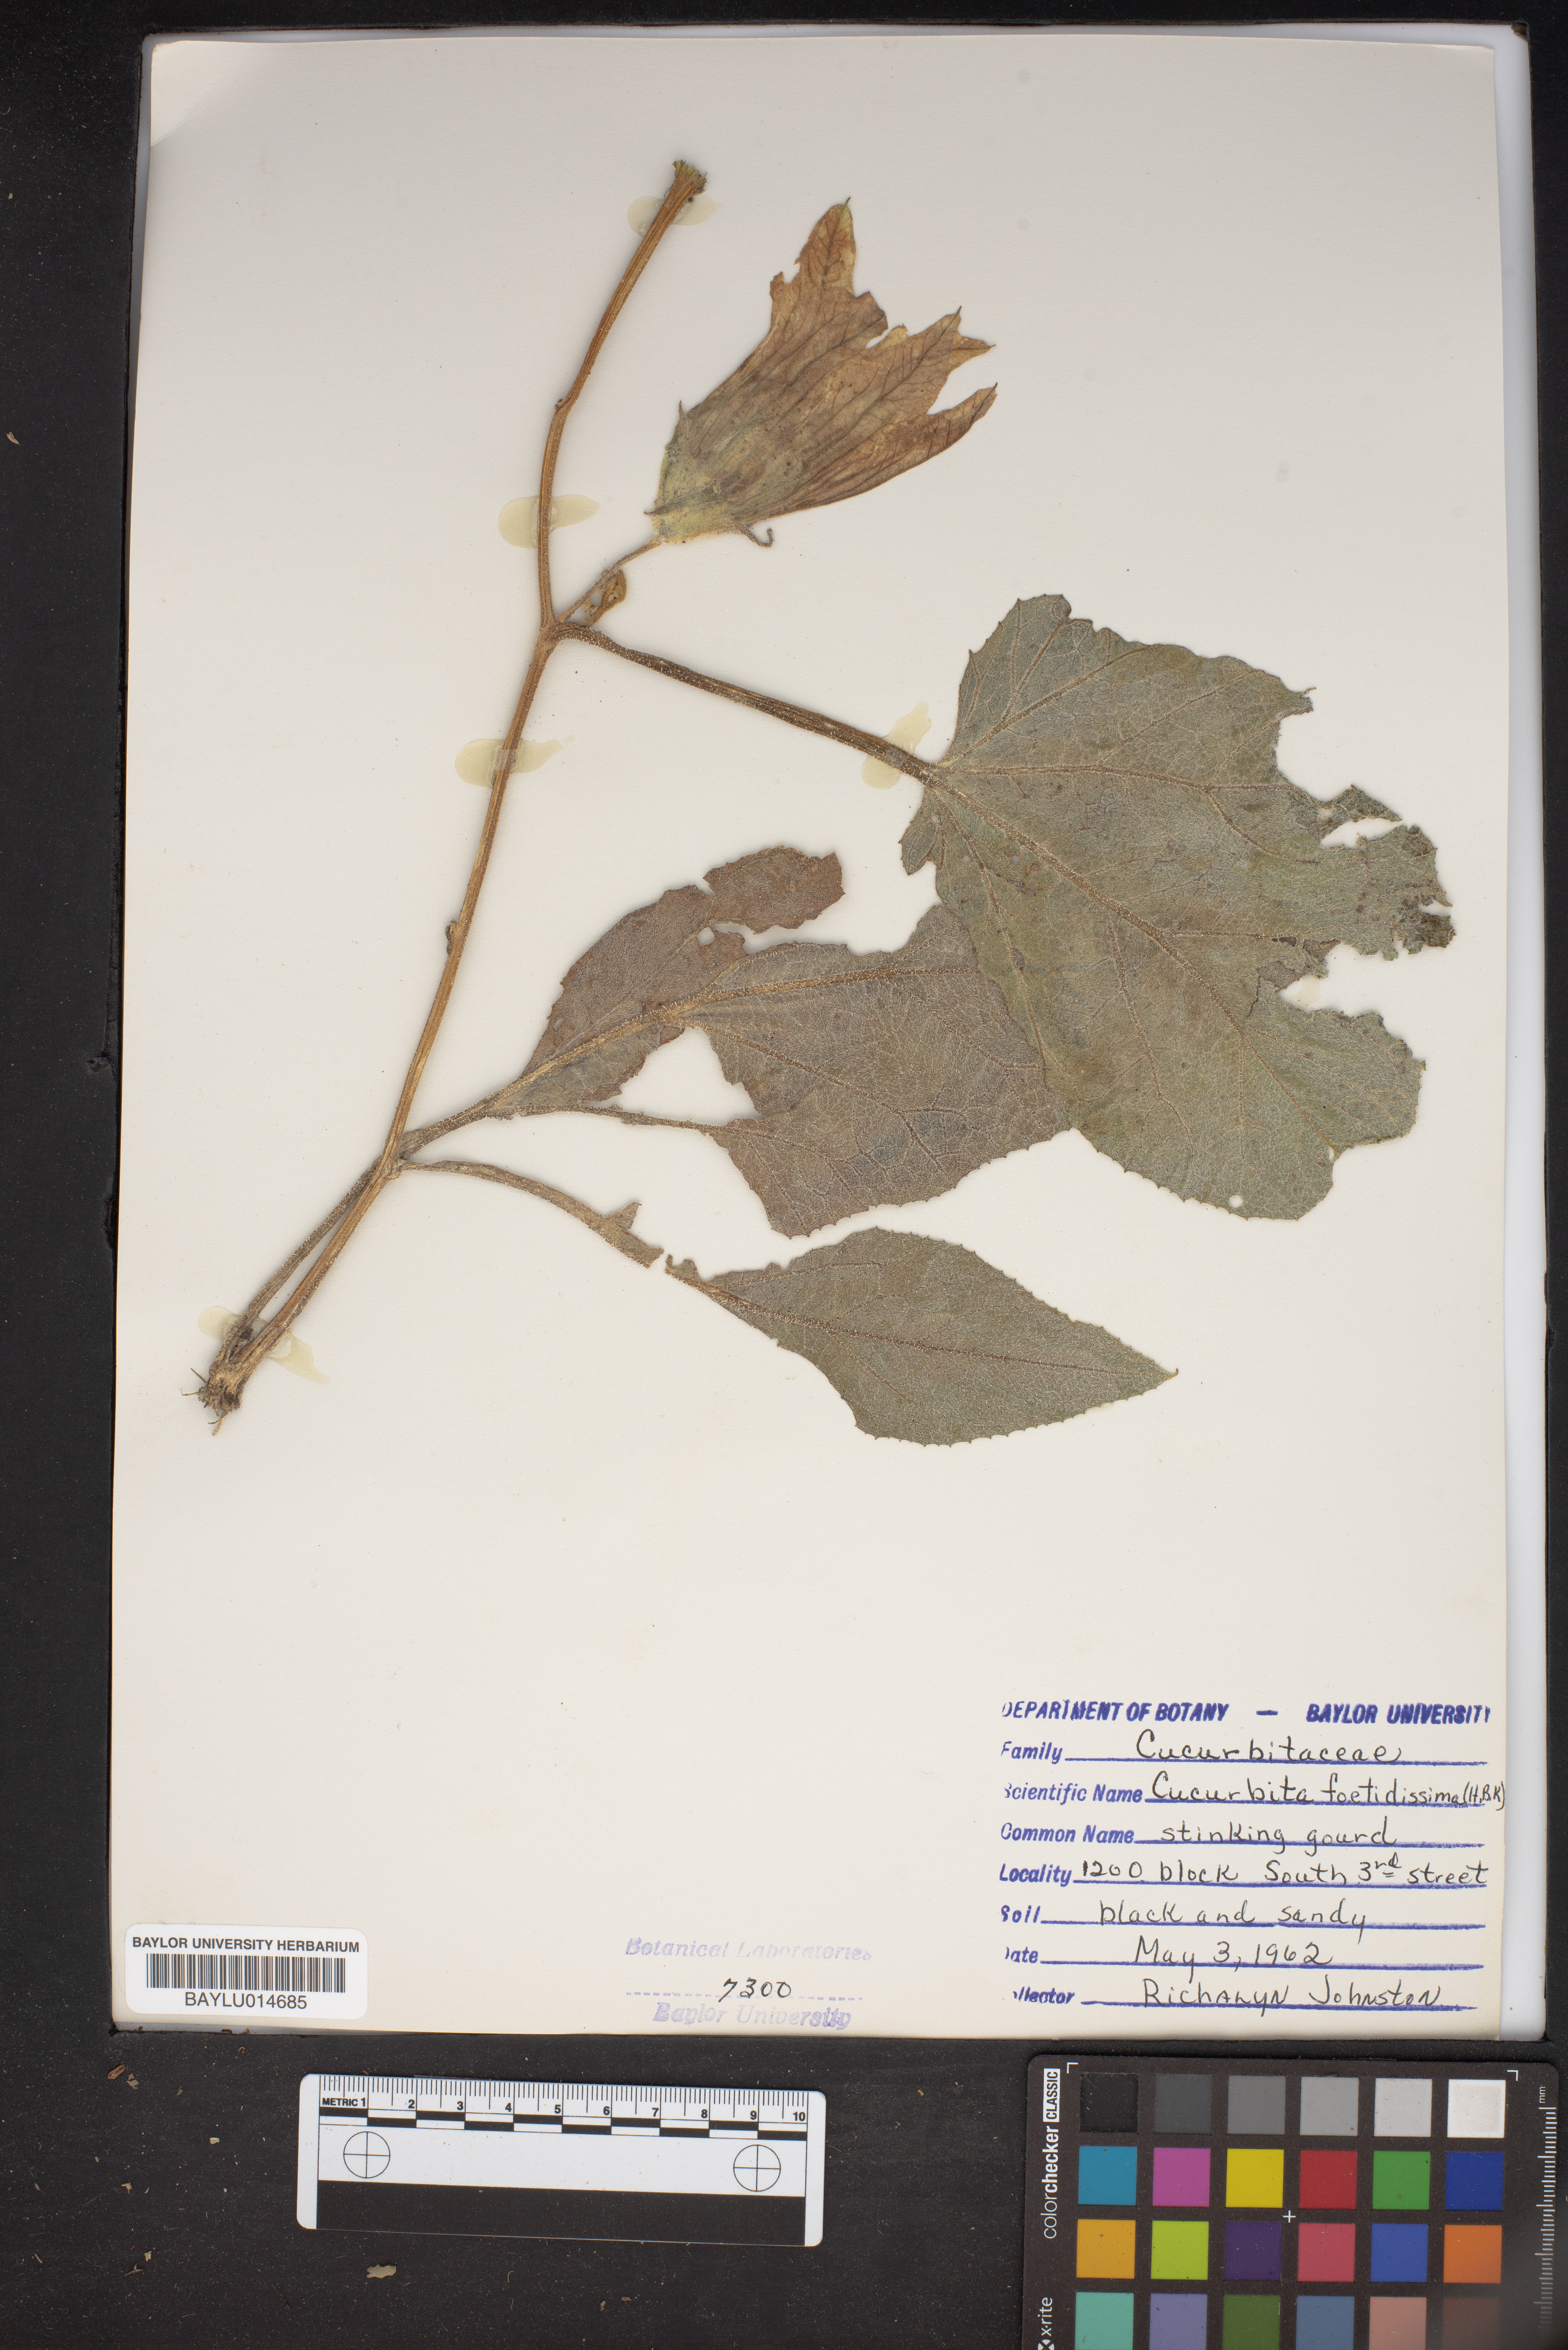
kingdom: Plantae
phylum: Tracheophyta
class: Magnoliopsida
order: Cucurbitales
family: Cucurbitaceae
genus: Cucurbita
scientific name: Cucurbita foetidissima
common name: Buffalo gourd
